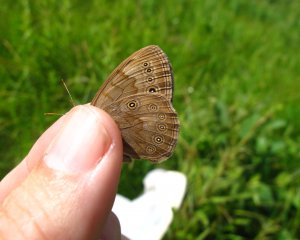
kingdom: Animalia
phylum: Arthropoda
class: Insecta
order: Lepidoptera
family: Nymphalidae
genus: Lethe
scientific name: Lethe eurydice
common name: Eyed Brown
